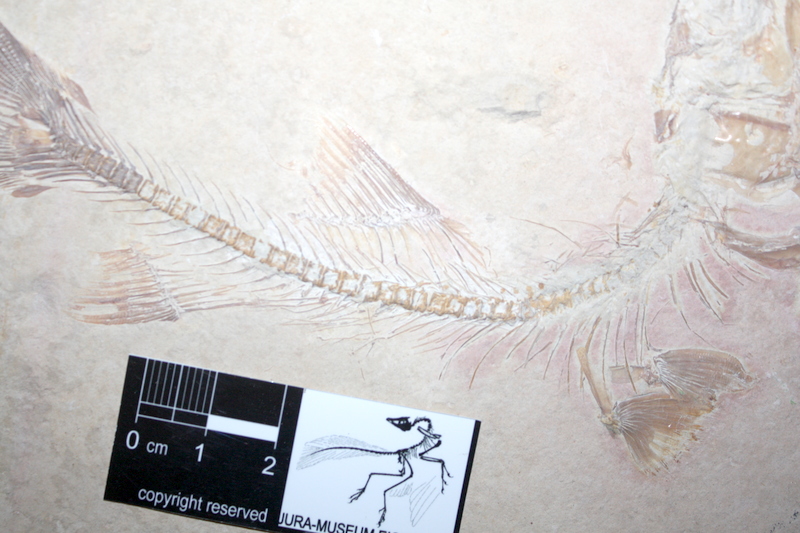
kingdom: Animalia
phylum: Chordata
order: Elopiformes
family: Anaethalionidae
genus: Anaethalion
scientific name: Anaethalion knorri
